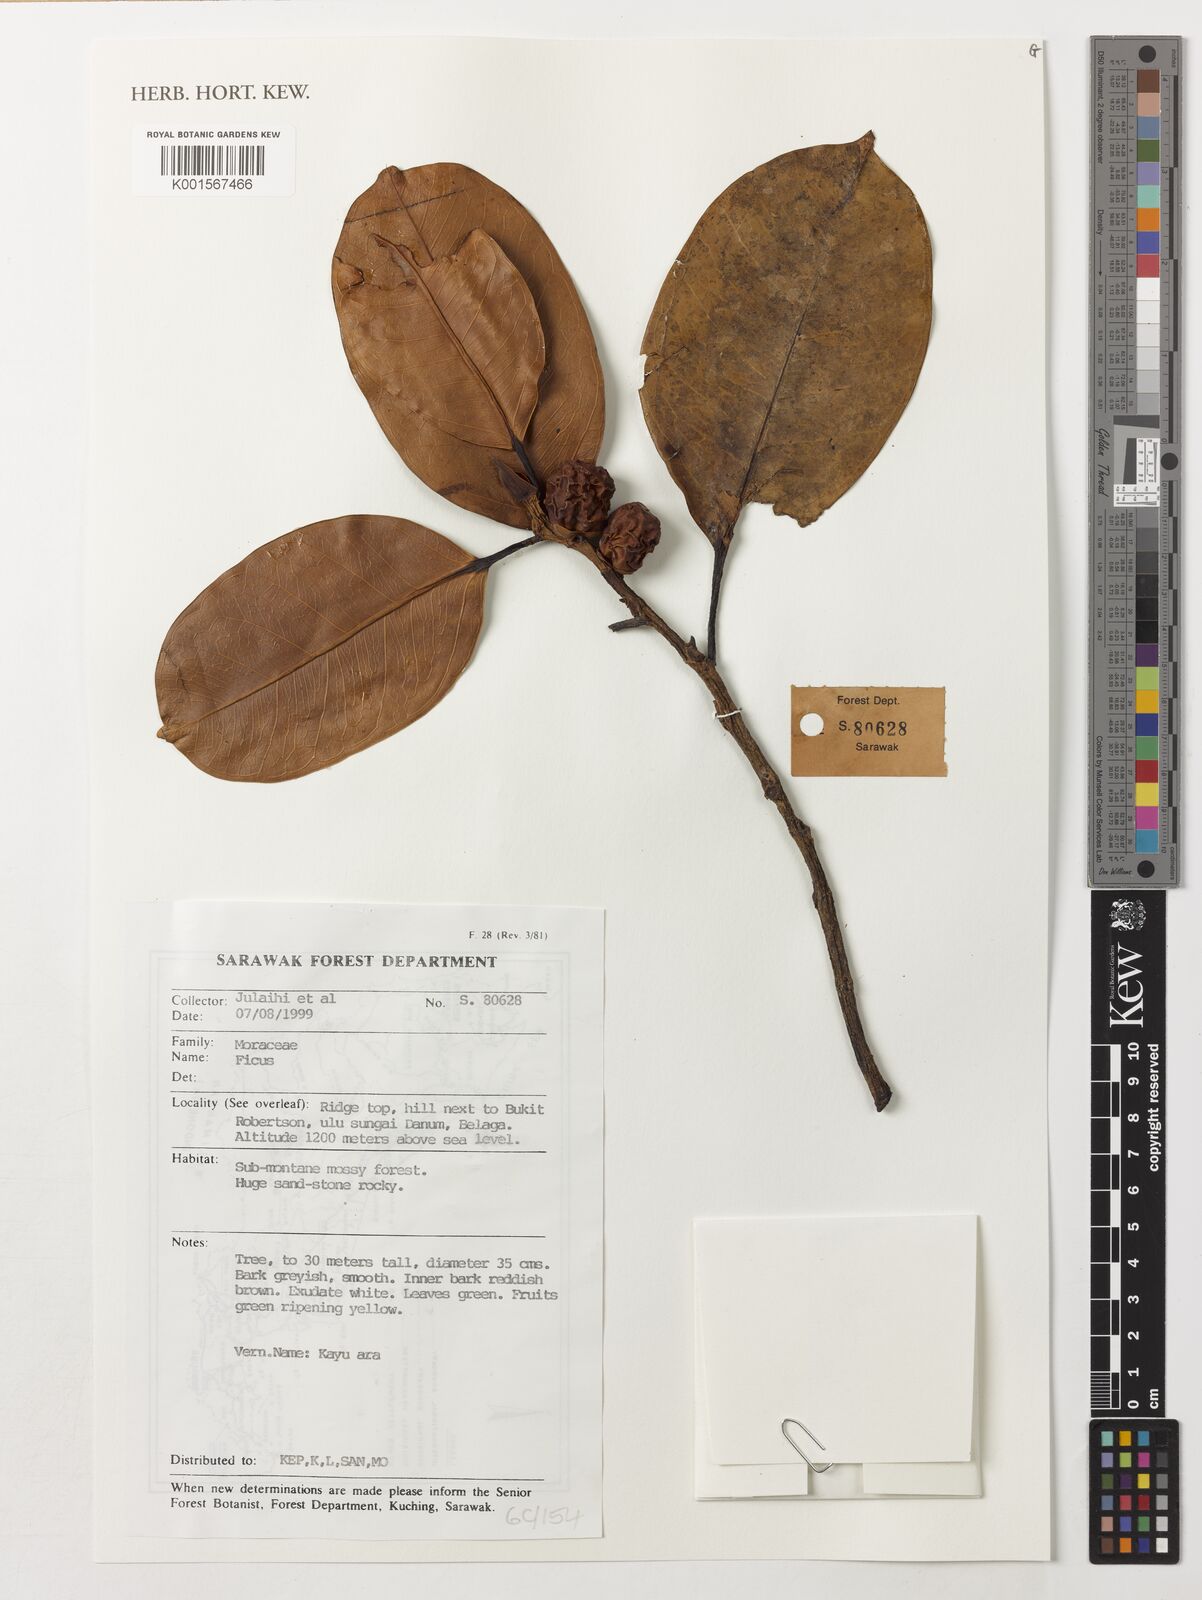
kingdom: Plantae
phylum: Tracheophyta
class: Magnoliopsida
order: Rosales
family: Moraceae
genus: Ficus
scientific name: Ficus
